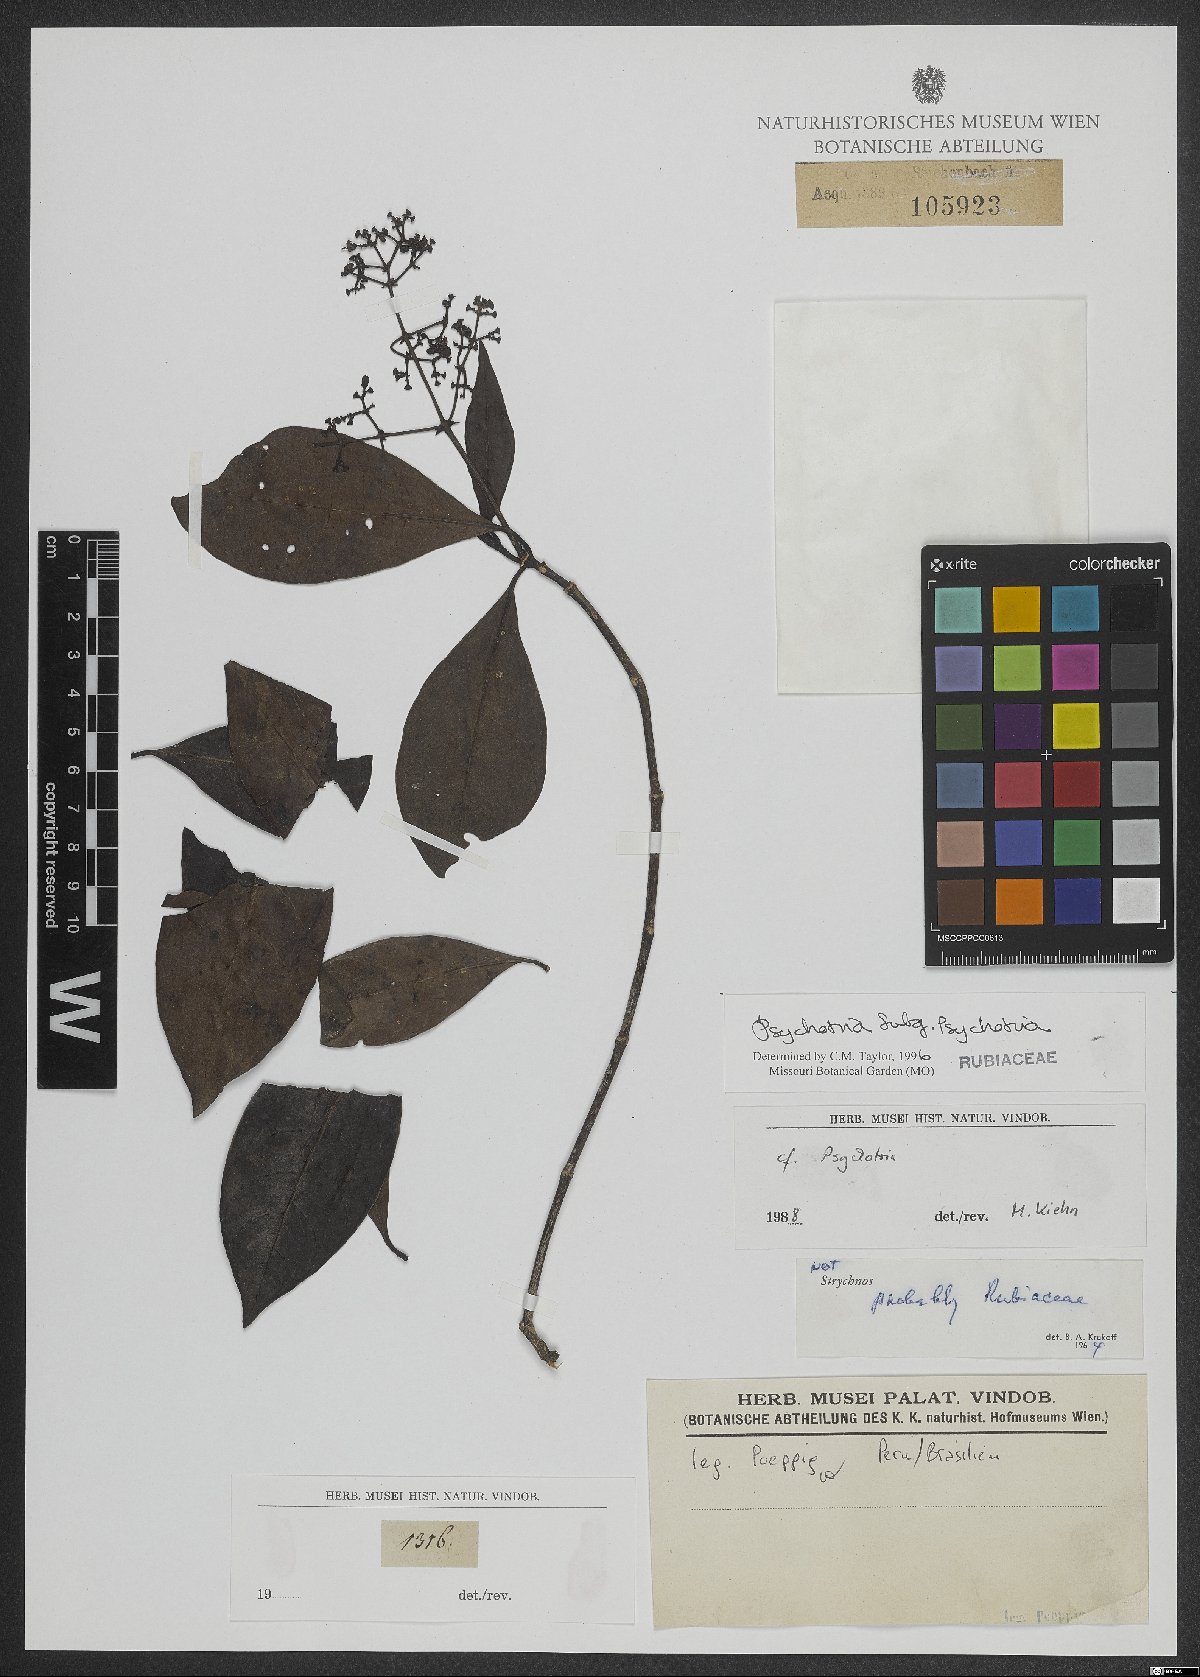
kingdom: Plantae
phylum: Tracheophyta
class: Magnoliopsida
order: Gentianales
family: Rubiaceae
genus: Psychotria
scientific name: Psychotria
